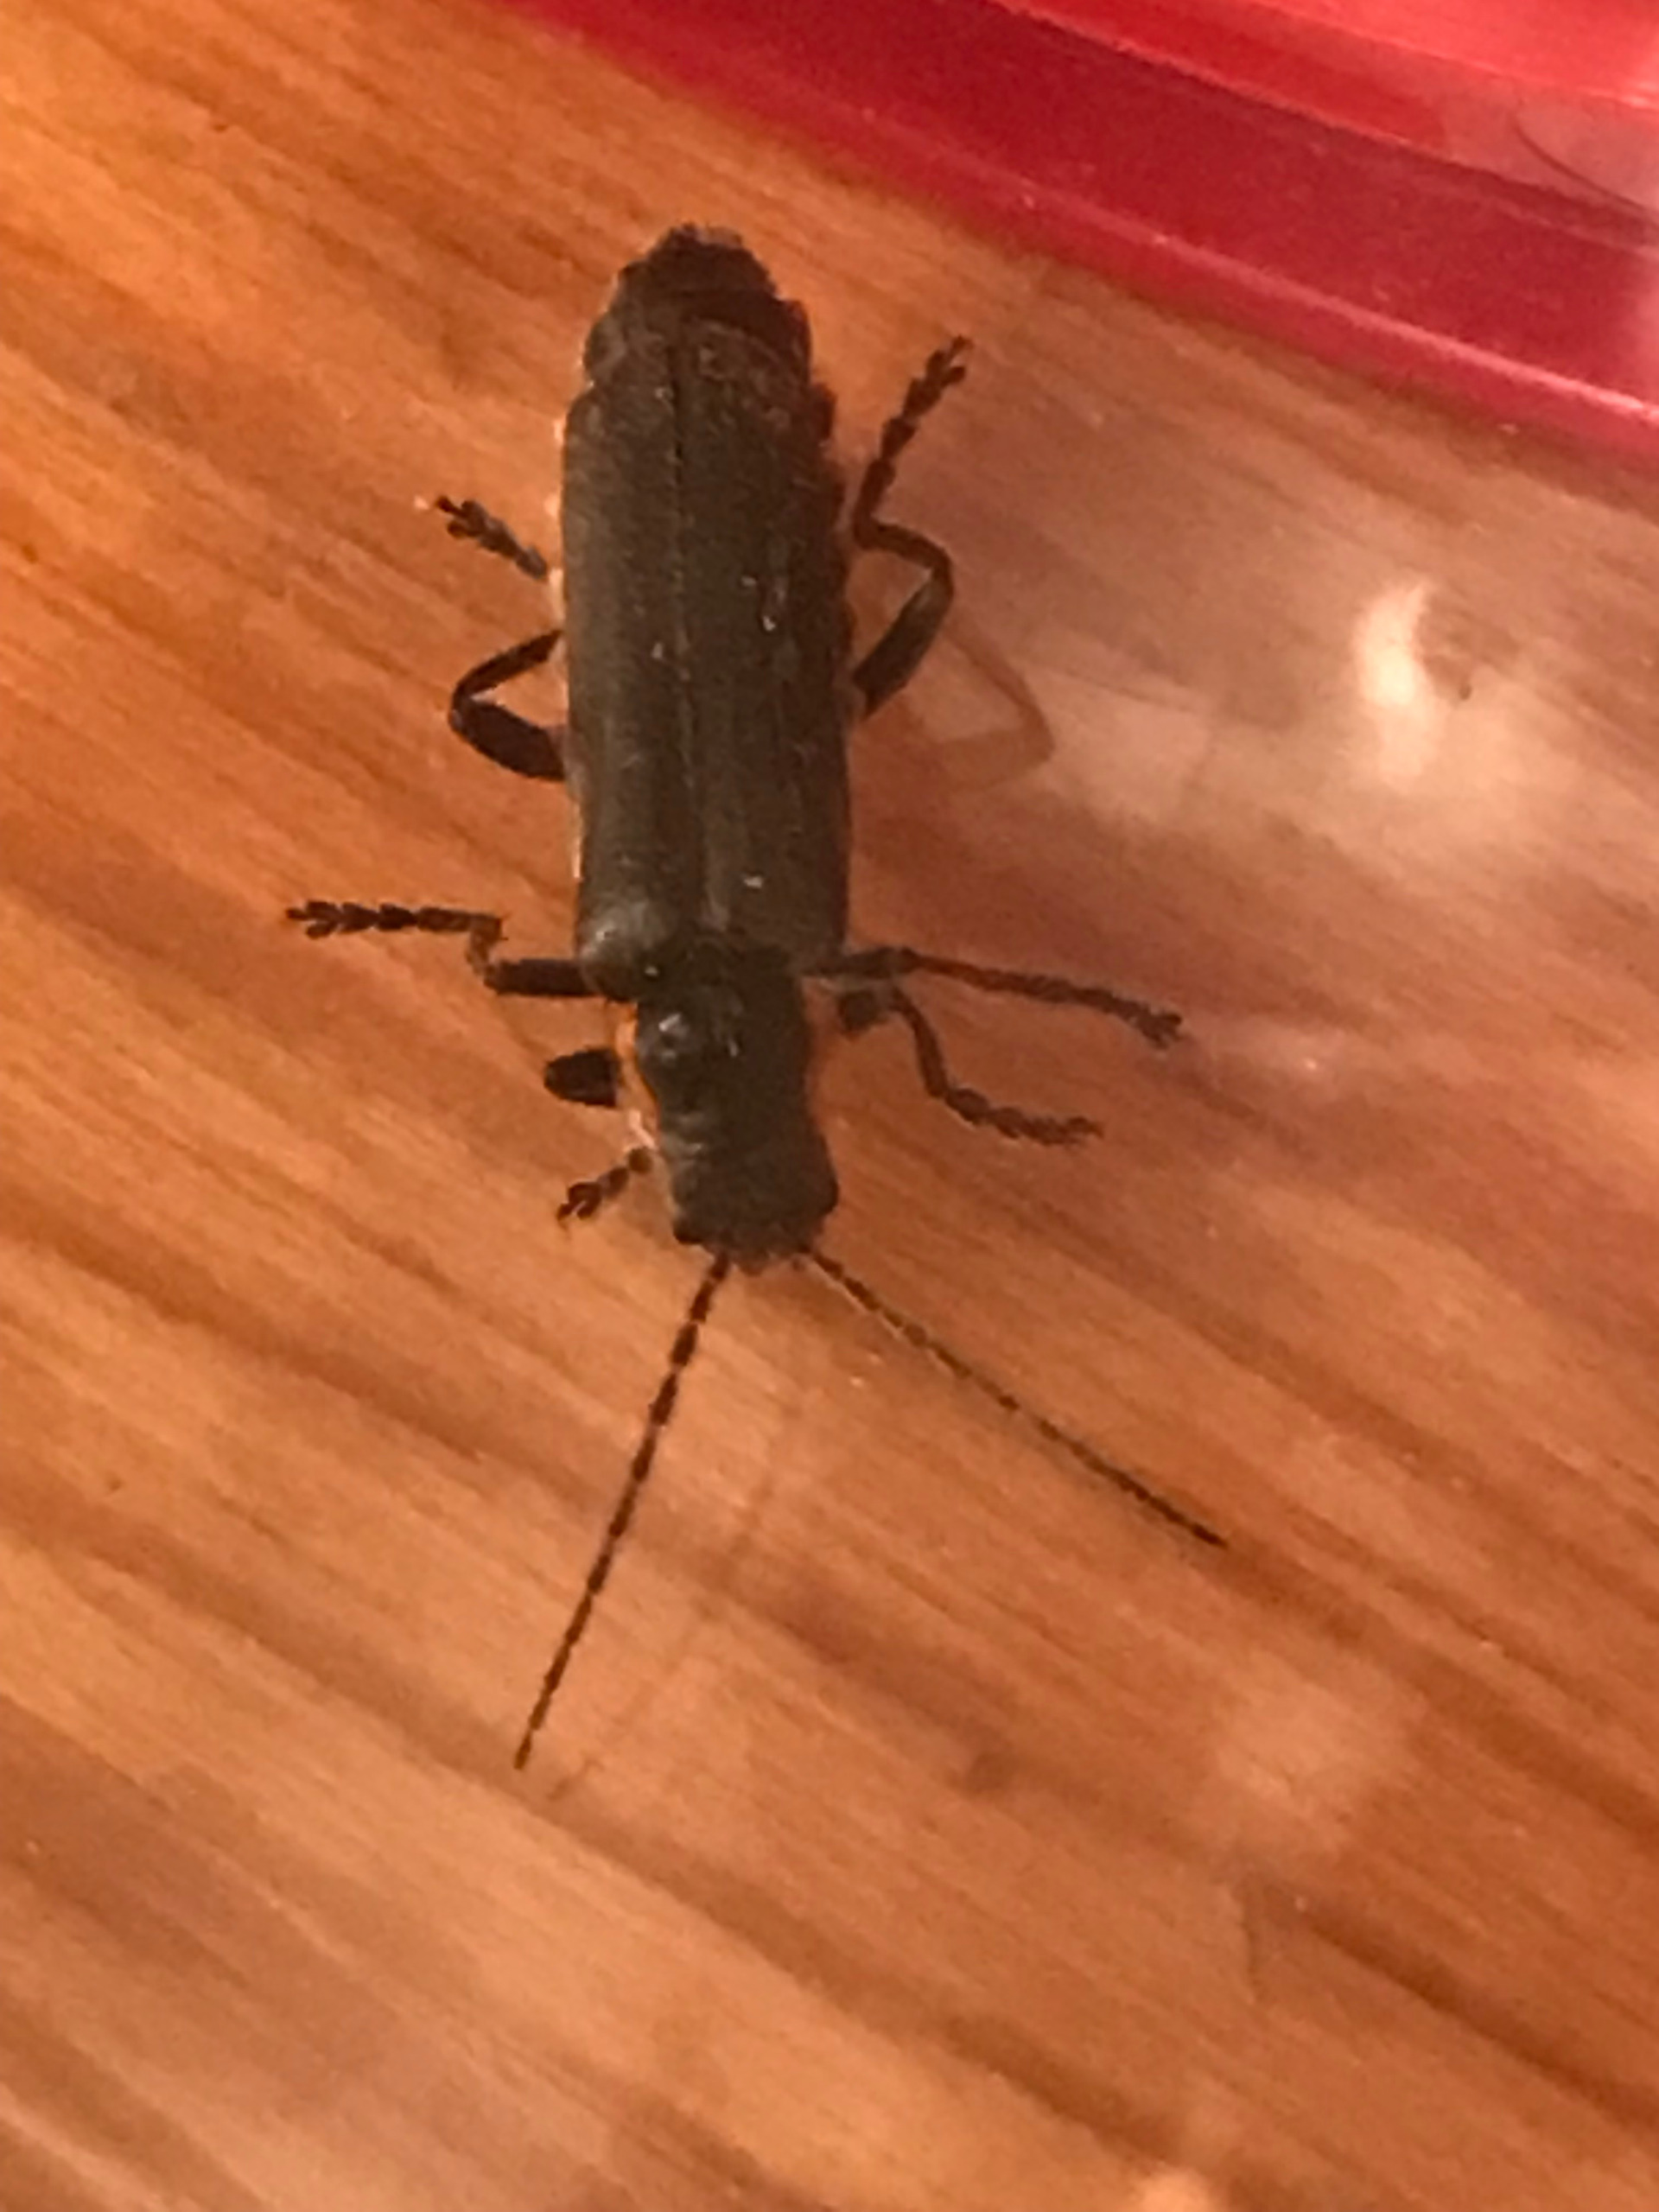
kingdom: Animalia
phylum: Arthropoda
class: Insecta
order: Coleoptera
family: Cantharidae
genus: Cantharis
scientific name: Cantharis obscura
